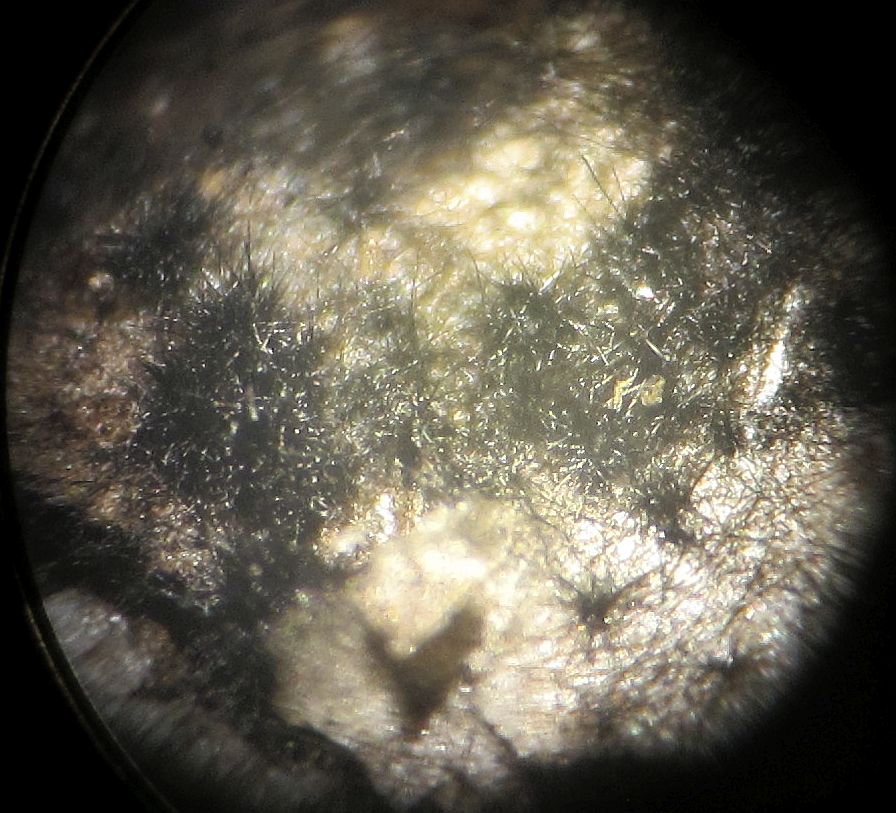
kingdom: Fungi
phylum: Ascomycota
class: Sordariomycetes
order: Sordariales
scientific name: Sordariales
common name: kernesvampordenen
